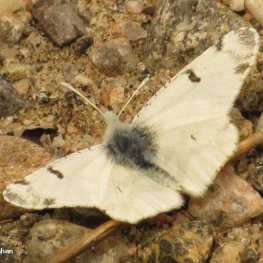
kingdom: Animalia
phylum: Arthropoda
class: Insecta
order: Lepidoptera
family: Pieridae
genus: Euchloe
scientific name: Euchloe olympia
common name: Olympia Marble
